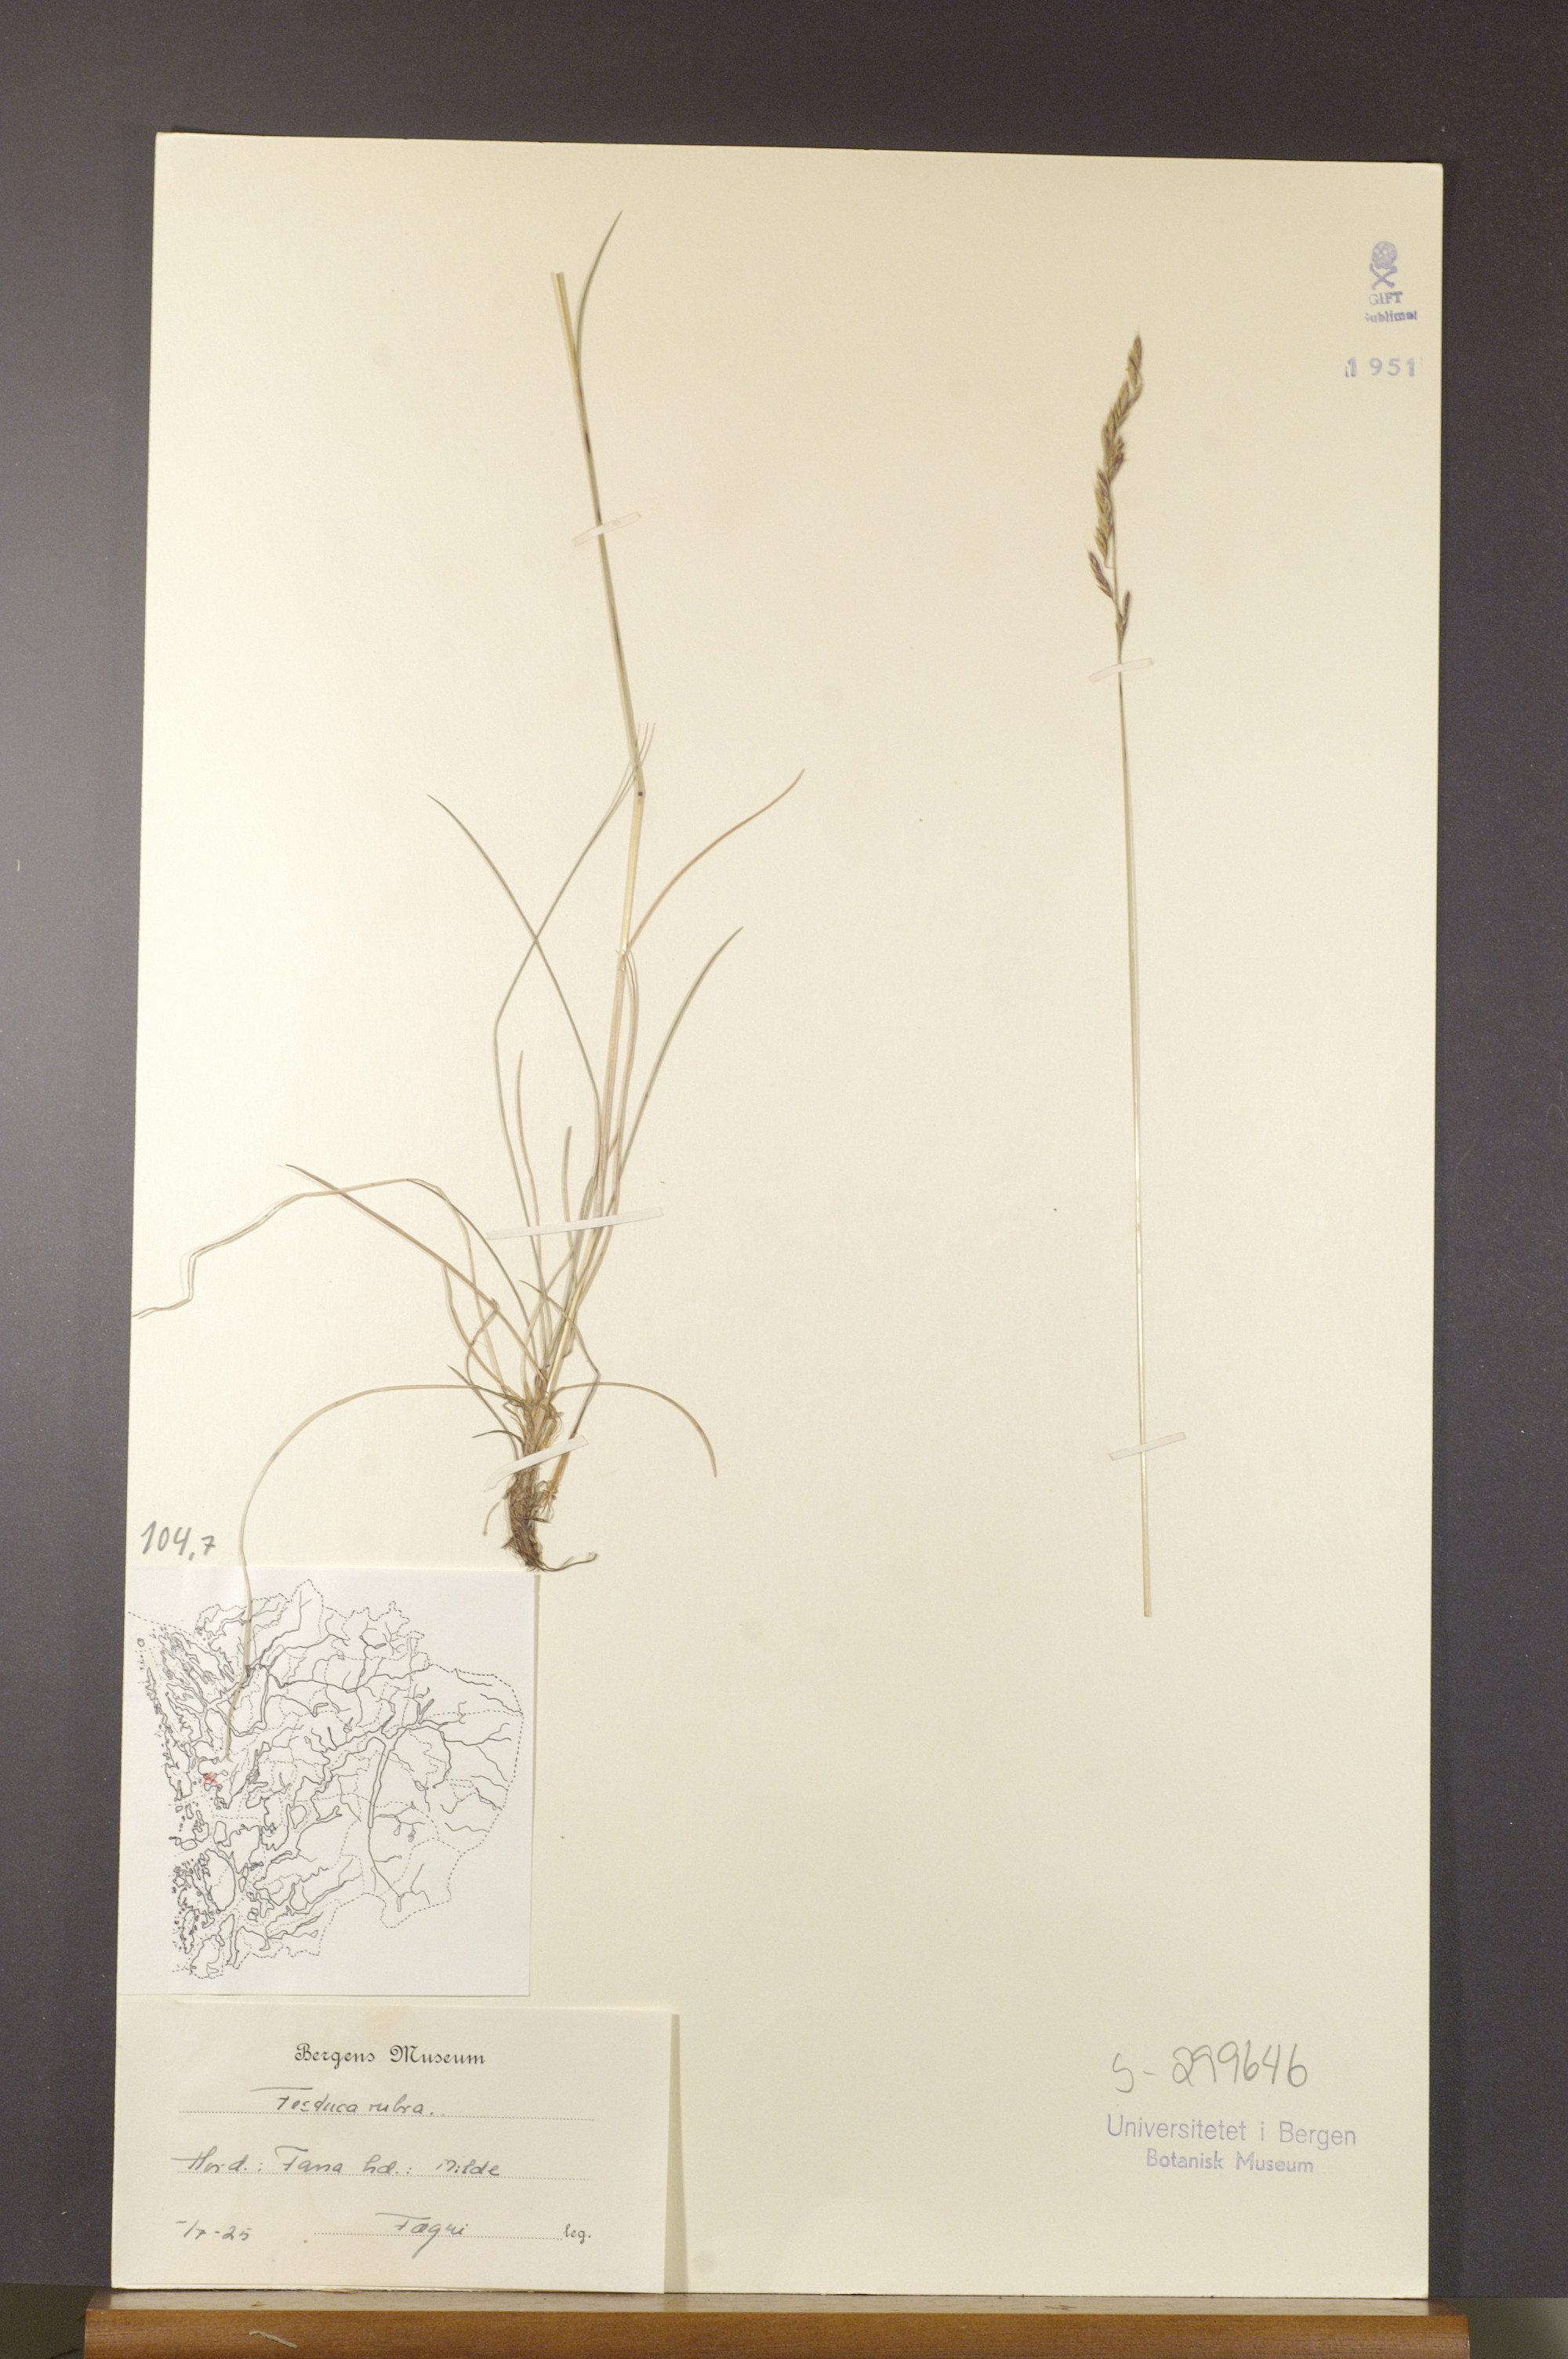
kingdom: Plantae
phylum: Tracheophyta
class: Liliopsida
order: Poales
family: Poaceae
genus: Festuca
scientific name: Festuca rubra
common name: Red fescue
